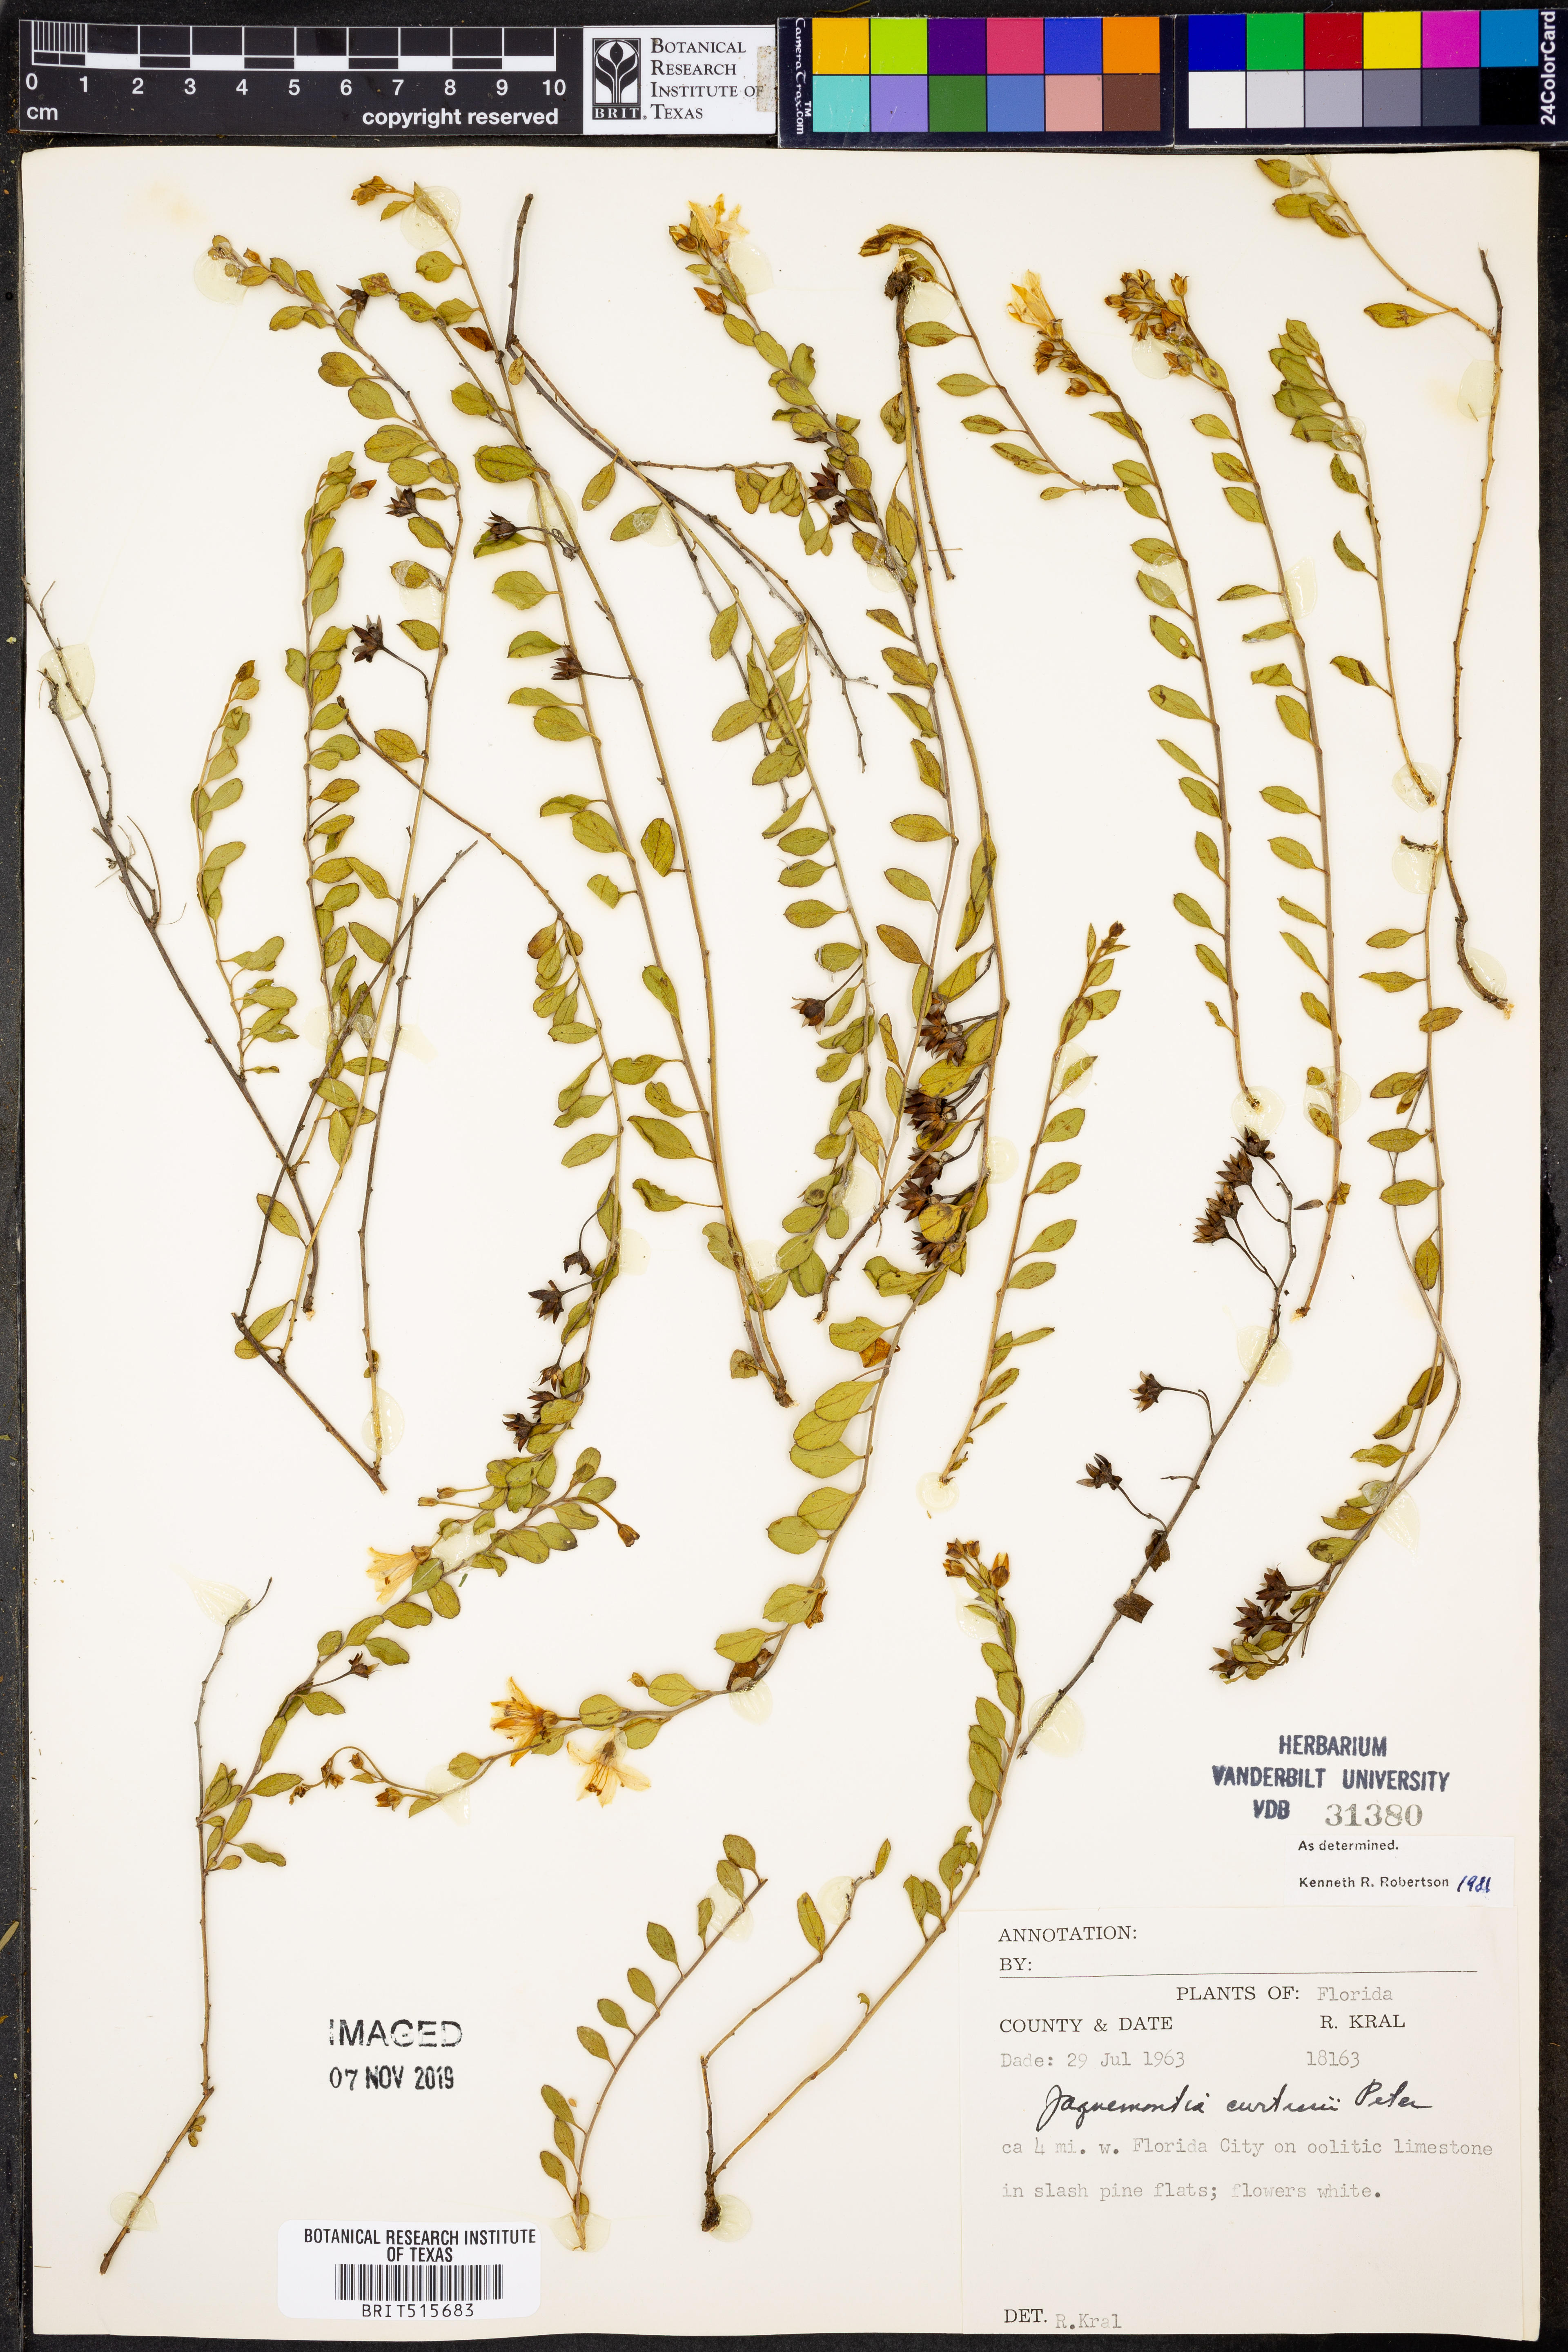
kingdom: Plantae
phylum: Tracheophyta
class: Magnoliopsida
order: Solanales
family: Convolvulaceae
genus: Jacquemontia
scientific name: Jacquemontia curtissii
